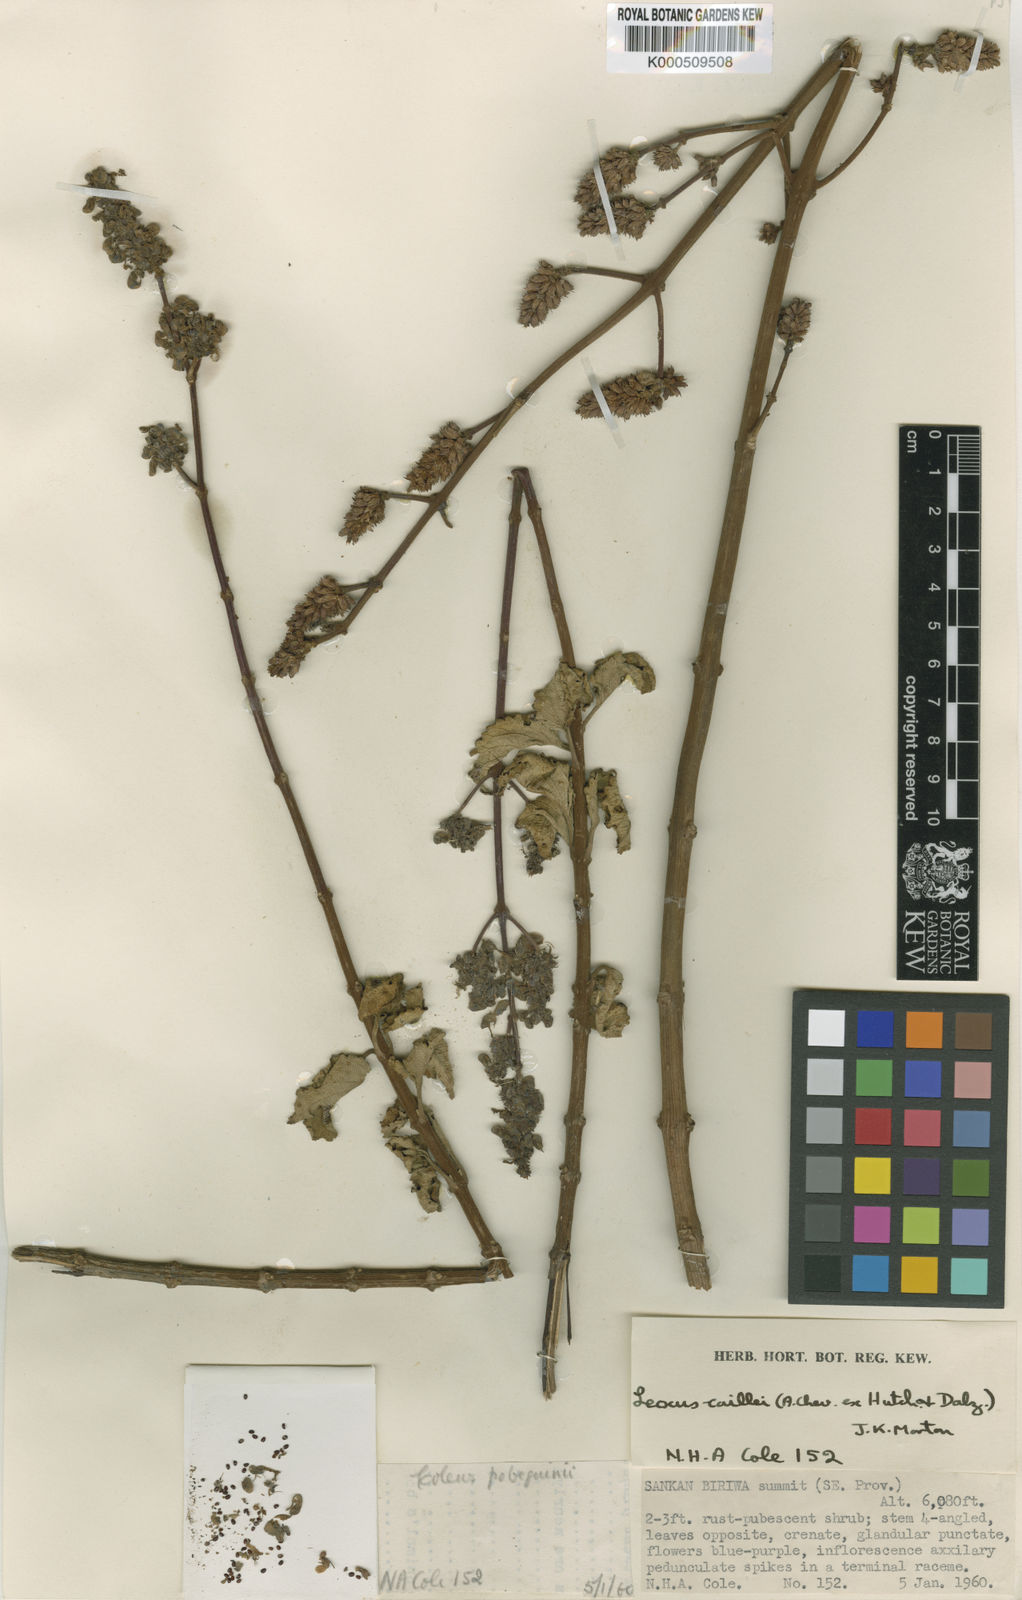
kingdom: Plantae
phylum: Tracheophyta
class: Magnoliopsida
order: Lamiales
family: Lamiaceae
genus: Coleus
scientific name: Coleus caillei
